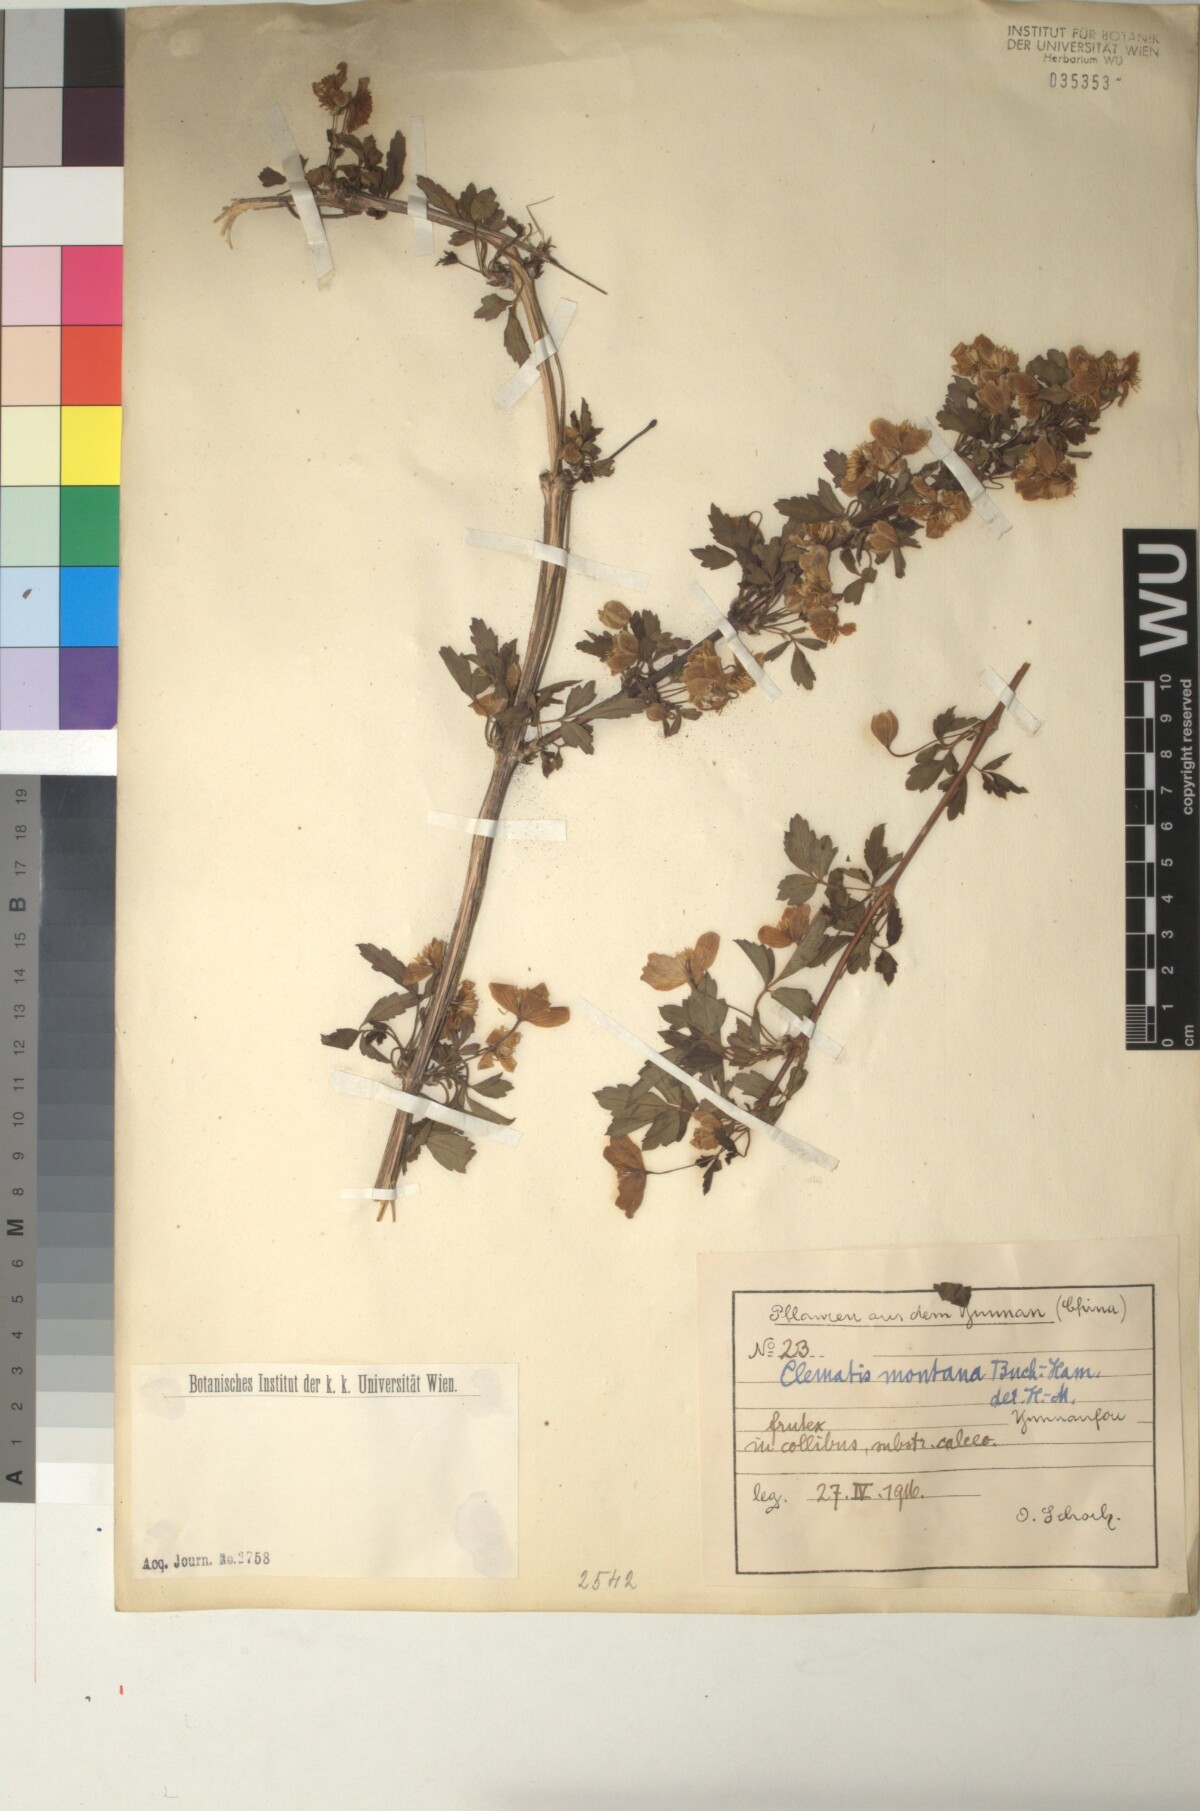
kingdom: Plantae
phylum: Tracheophyta
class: Magnoliopsida
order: Ranunculales
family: Ranunculaceae
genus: Clematis
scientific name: Clematis montana
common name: Himalayan clematis
